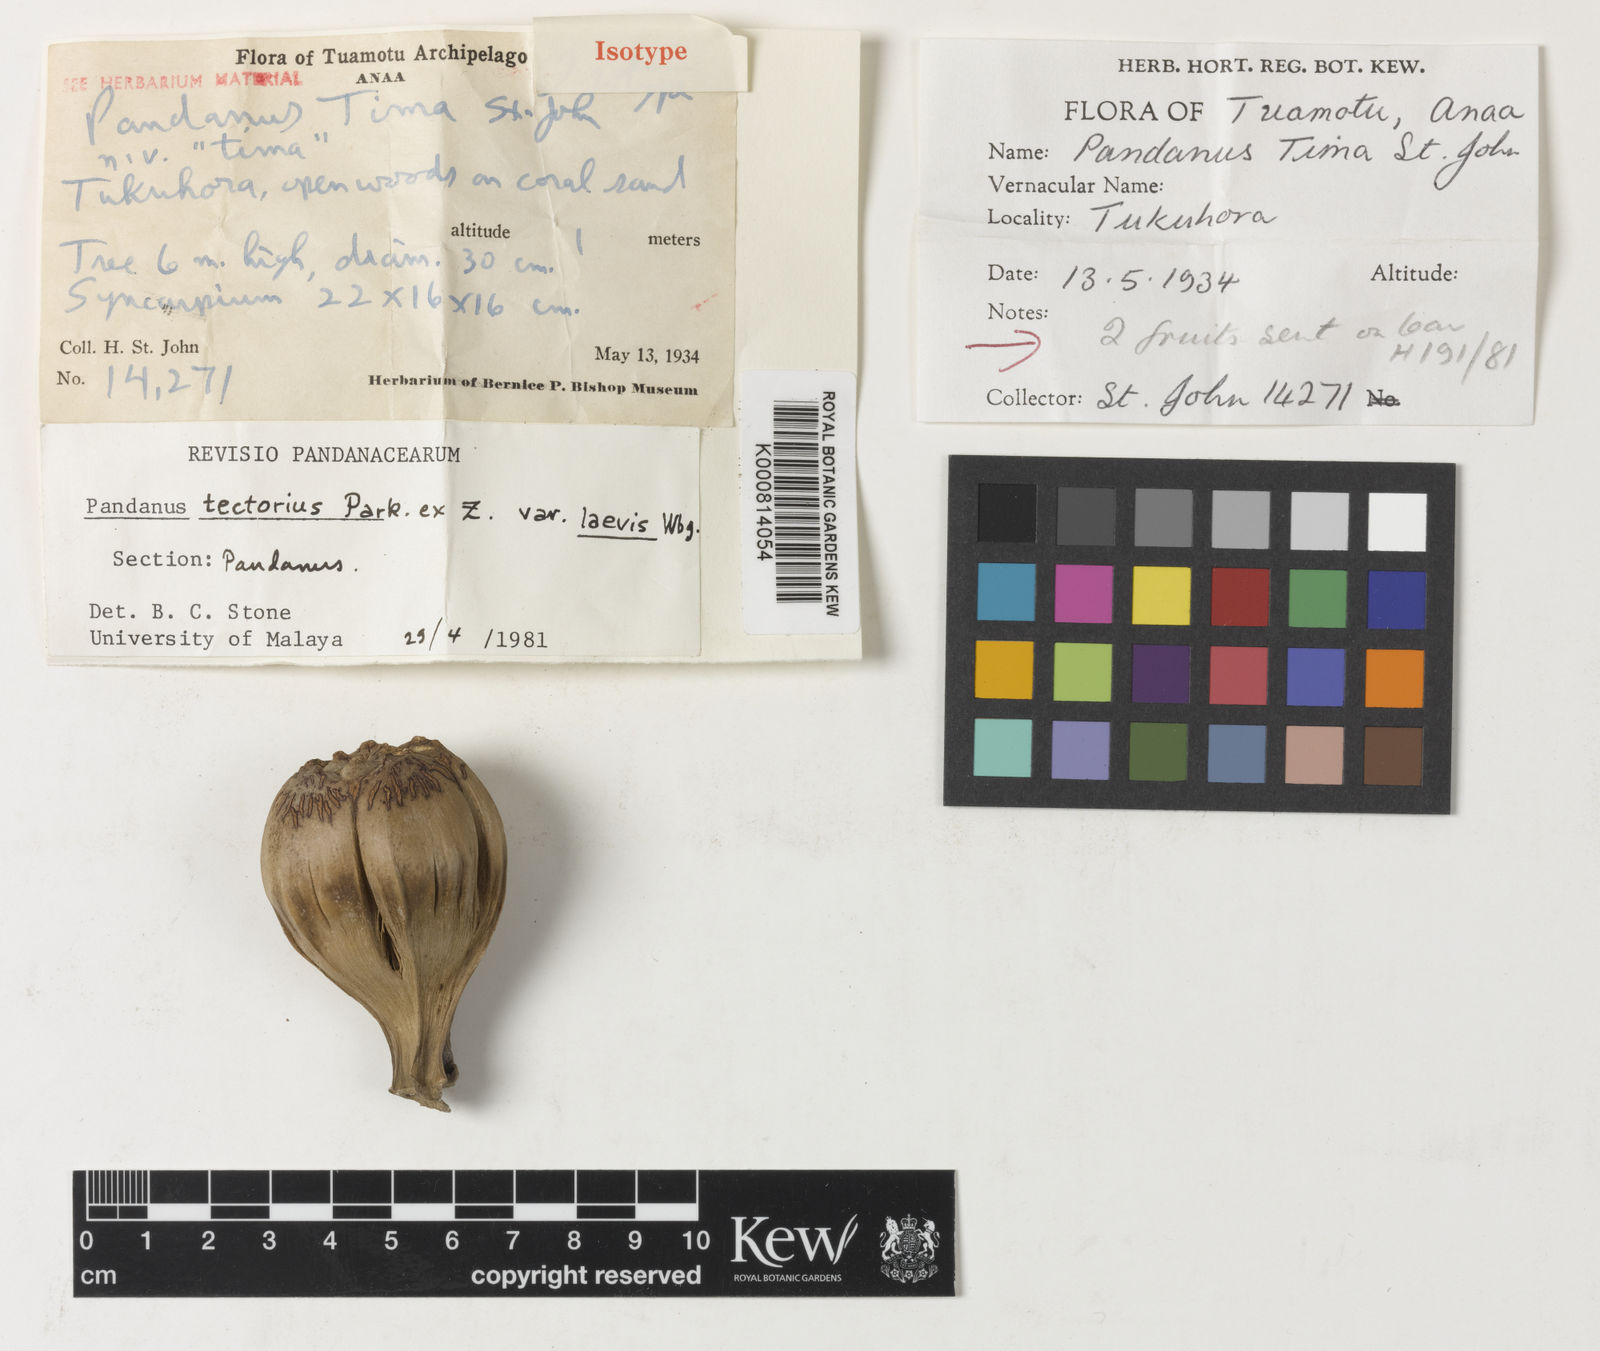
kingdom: Plantae
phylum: Tracheophyta
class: Liliopsida
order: Pandanales
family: Pandanaceae
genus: Pandanus
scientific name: Pandanus tectorius
